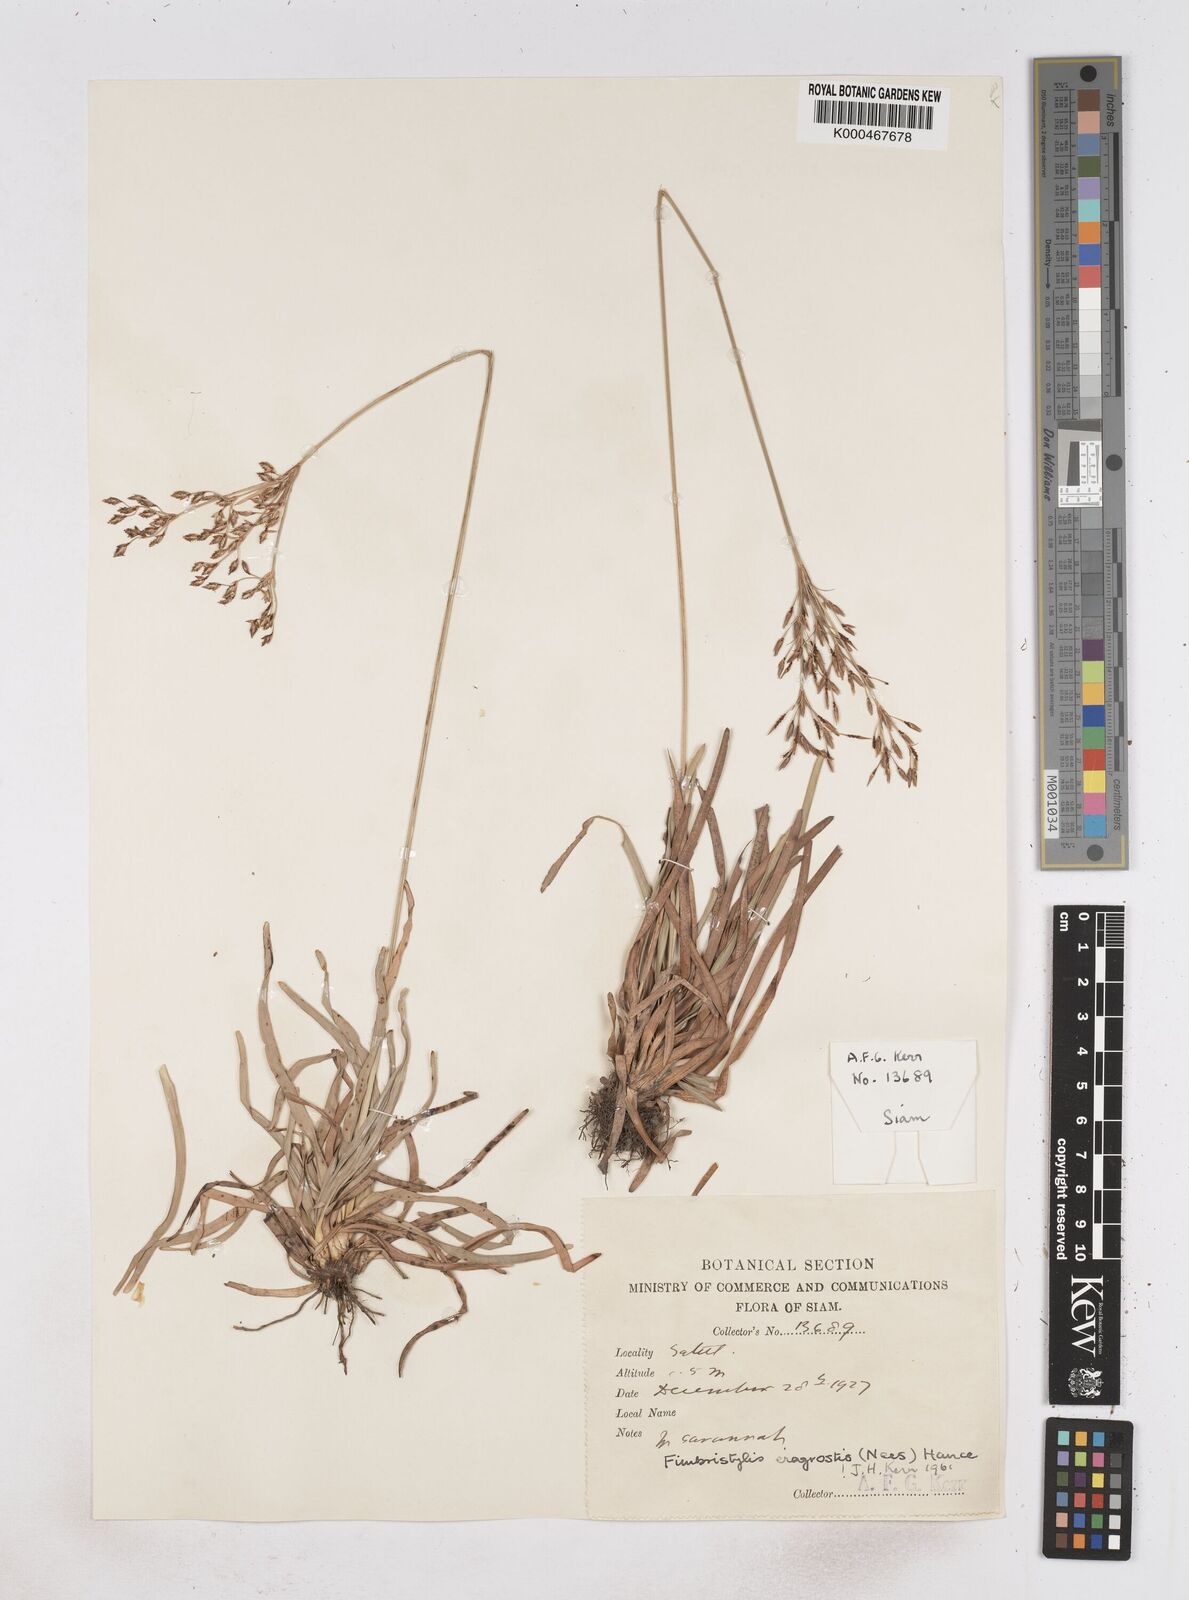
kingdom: Plantae
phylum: Tracheophyta
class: Liliopsida
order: Poales
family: Cyperaceae
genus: Fimbristylis
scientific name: Fimbristylis eragrostis
